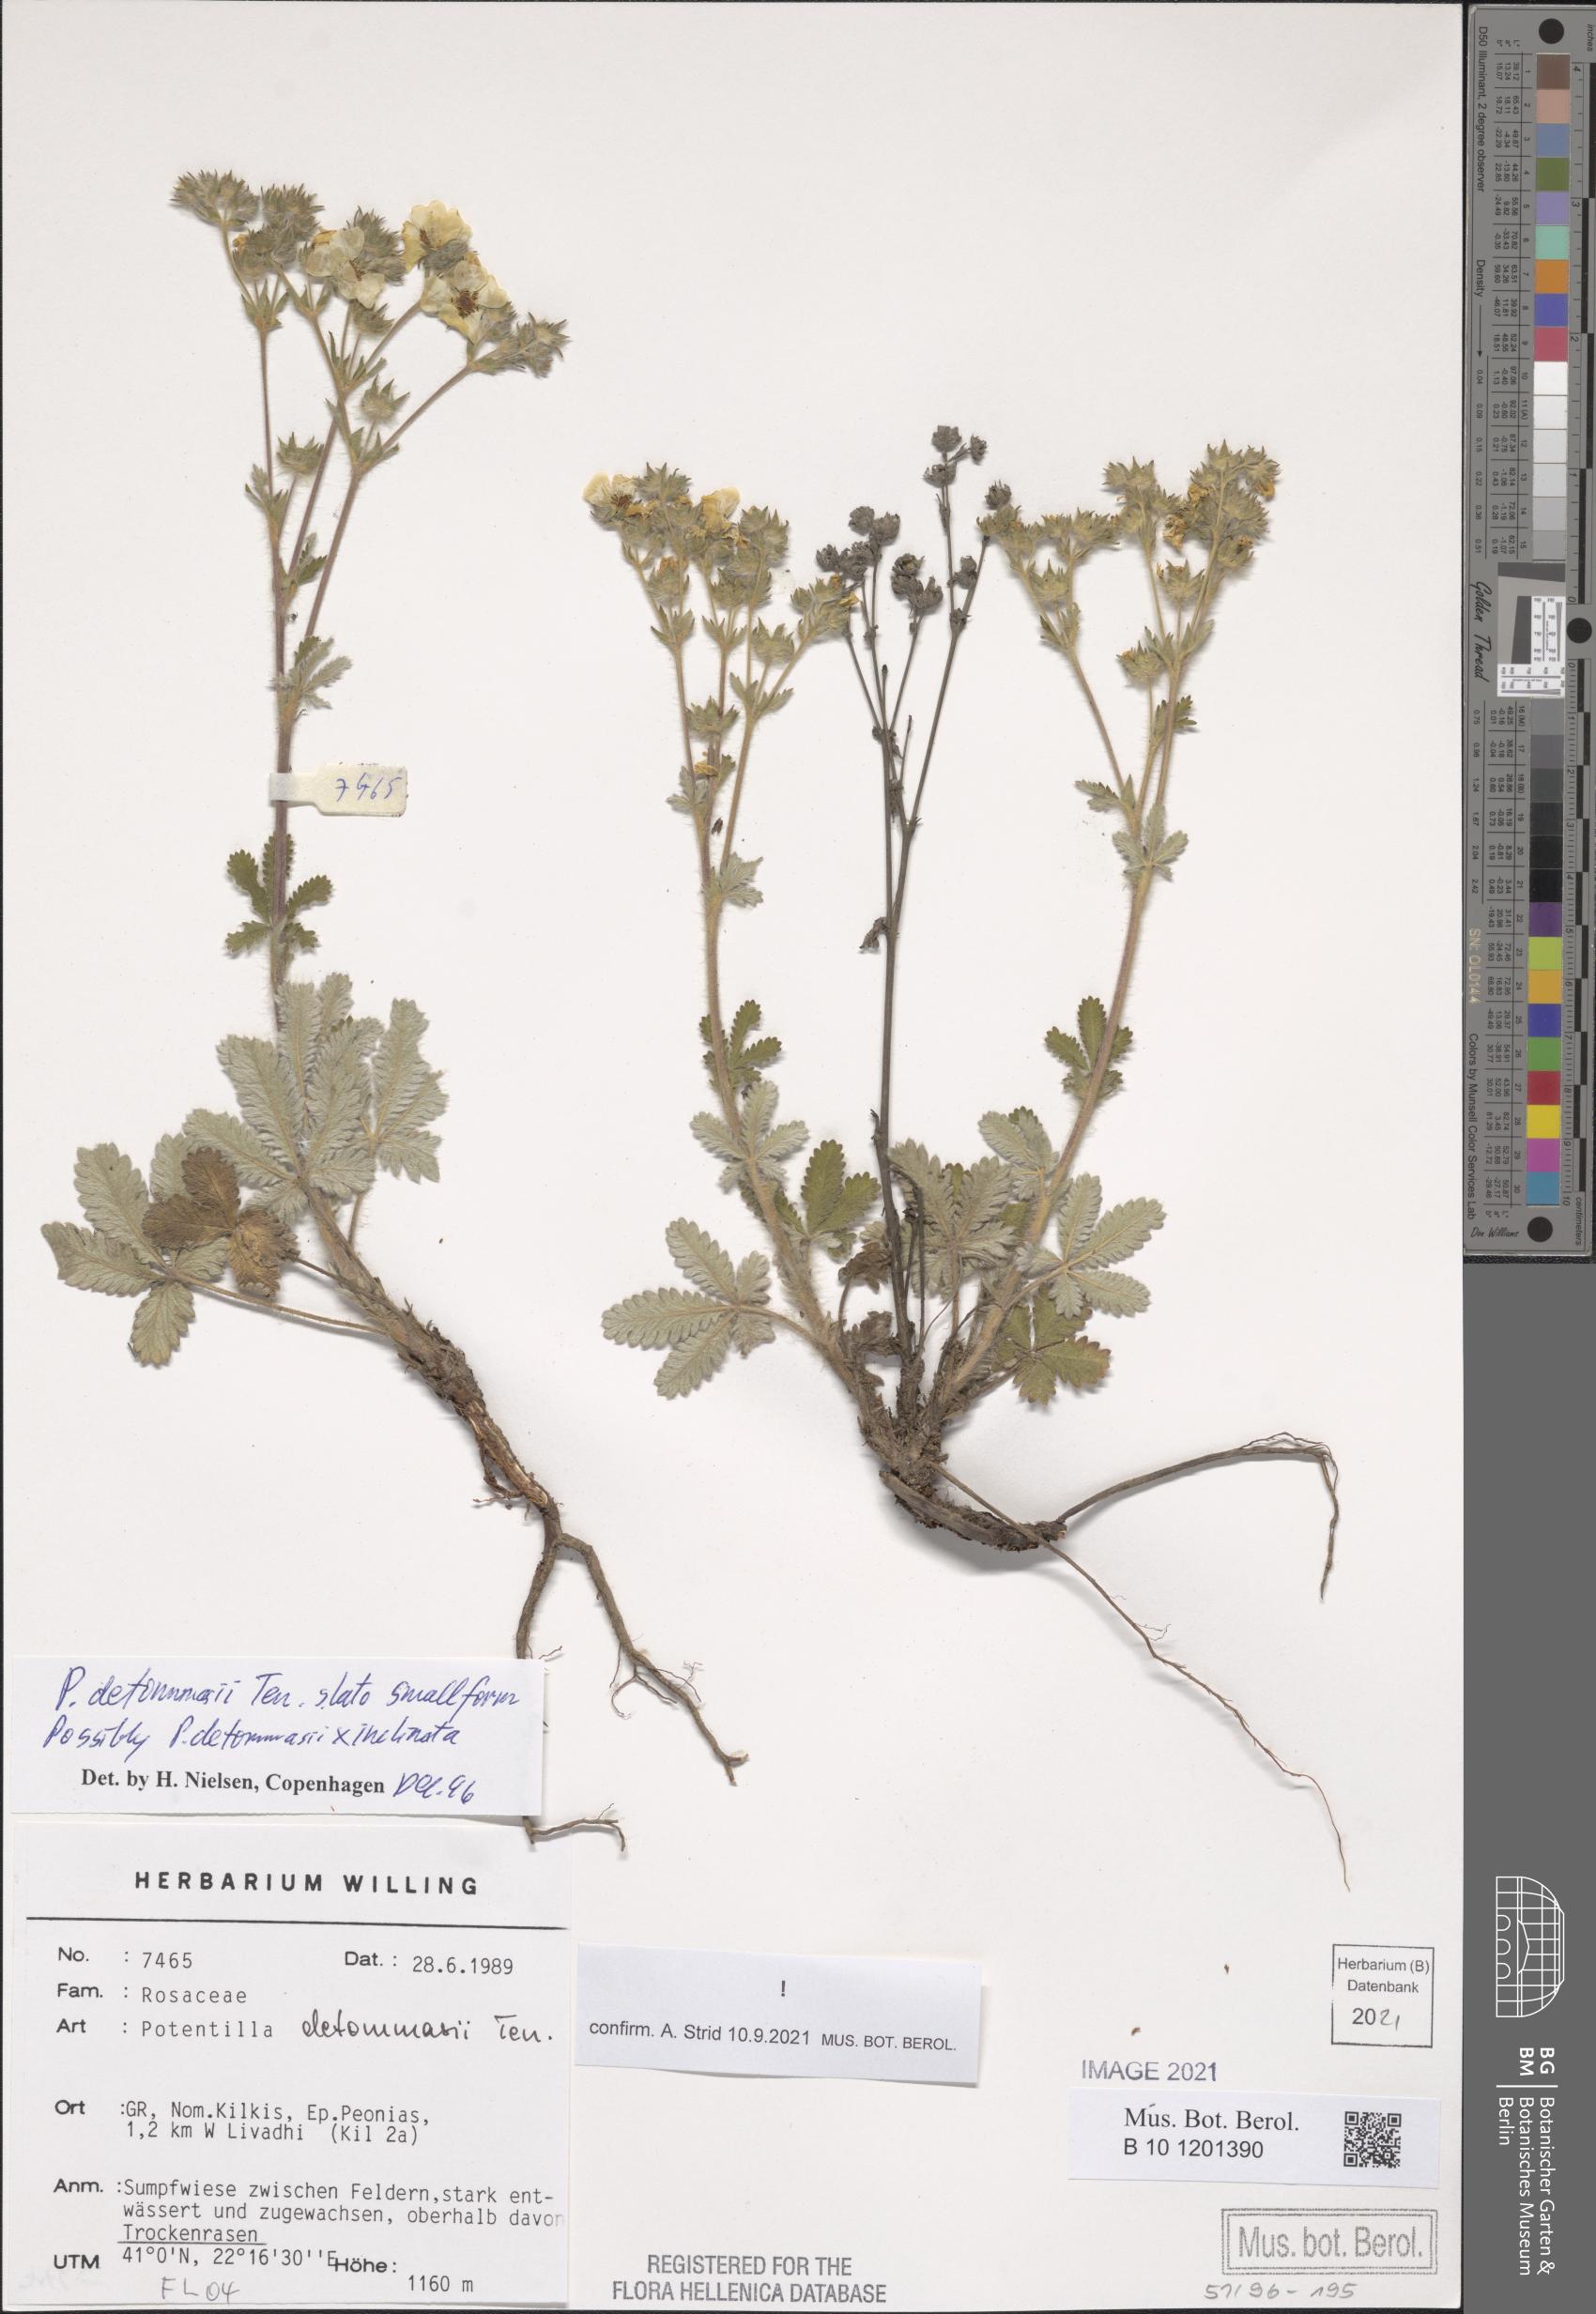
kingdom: Plantae
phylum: Tracheophyta
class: Magnoliopsida
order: Rosales
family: Rosaceae
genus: Potentilla
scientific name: Potentilla detommasii
